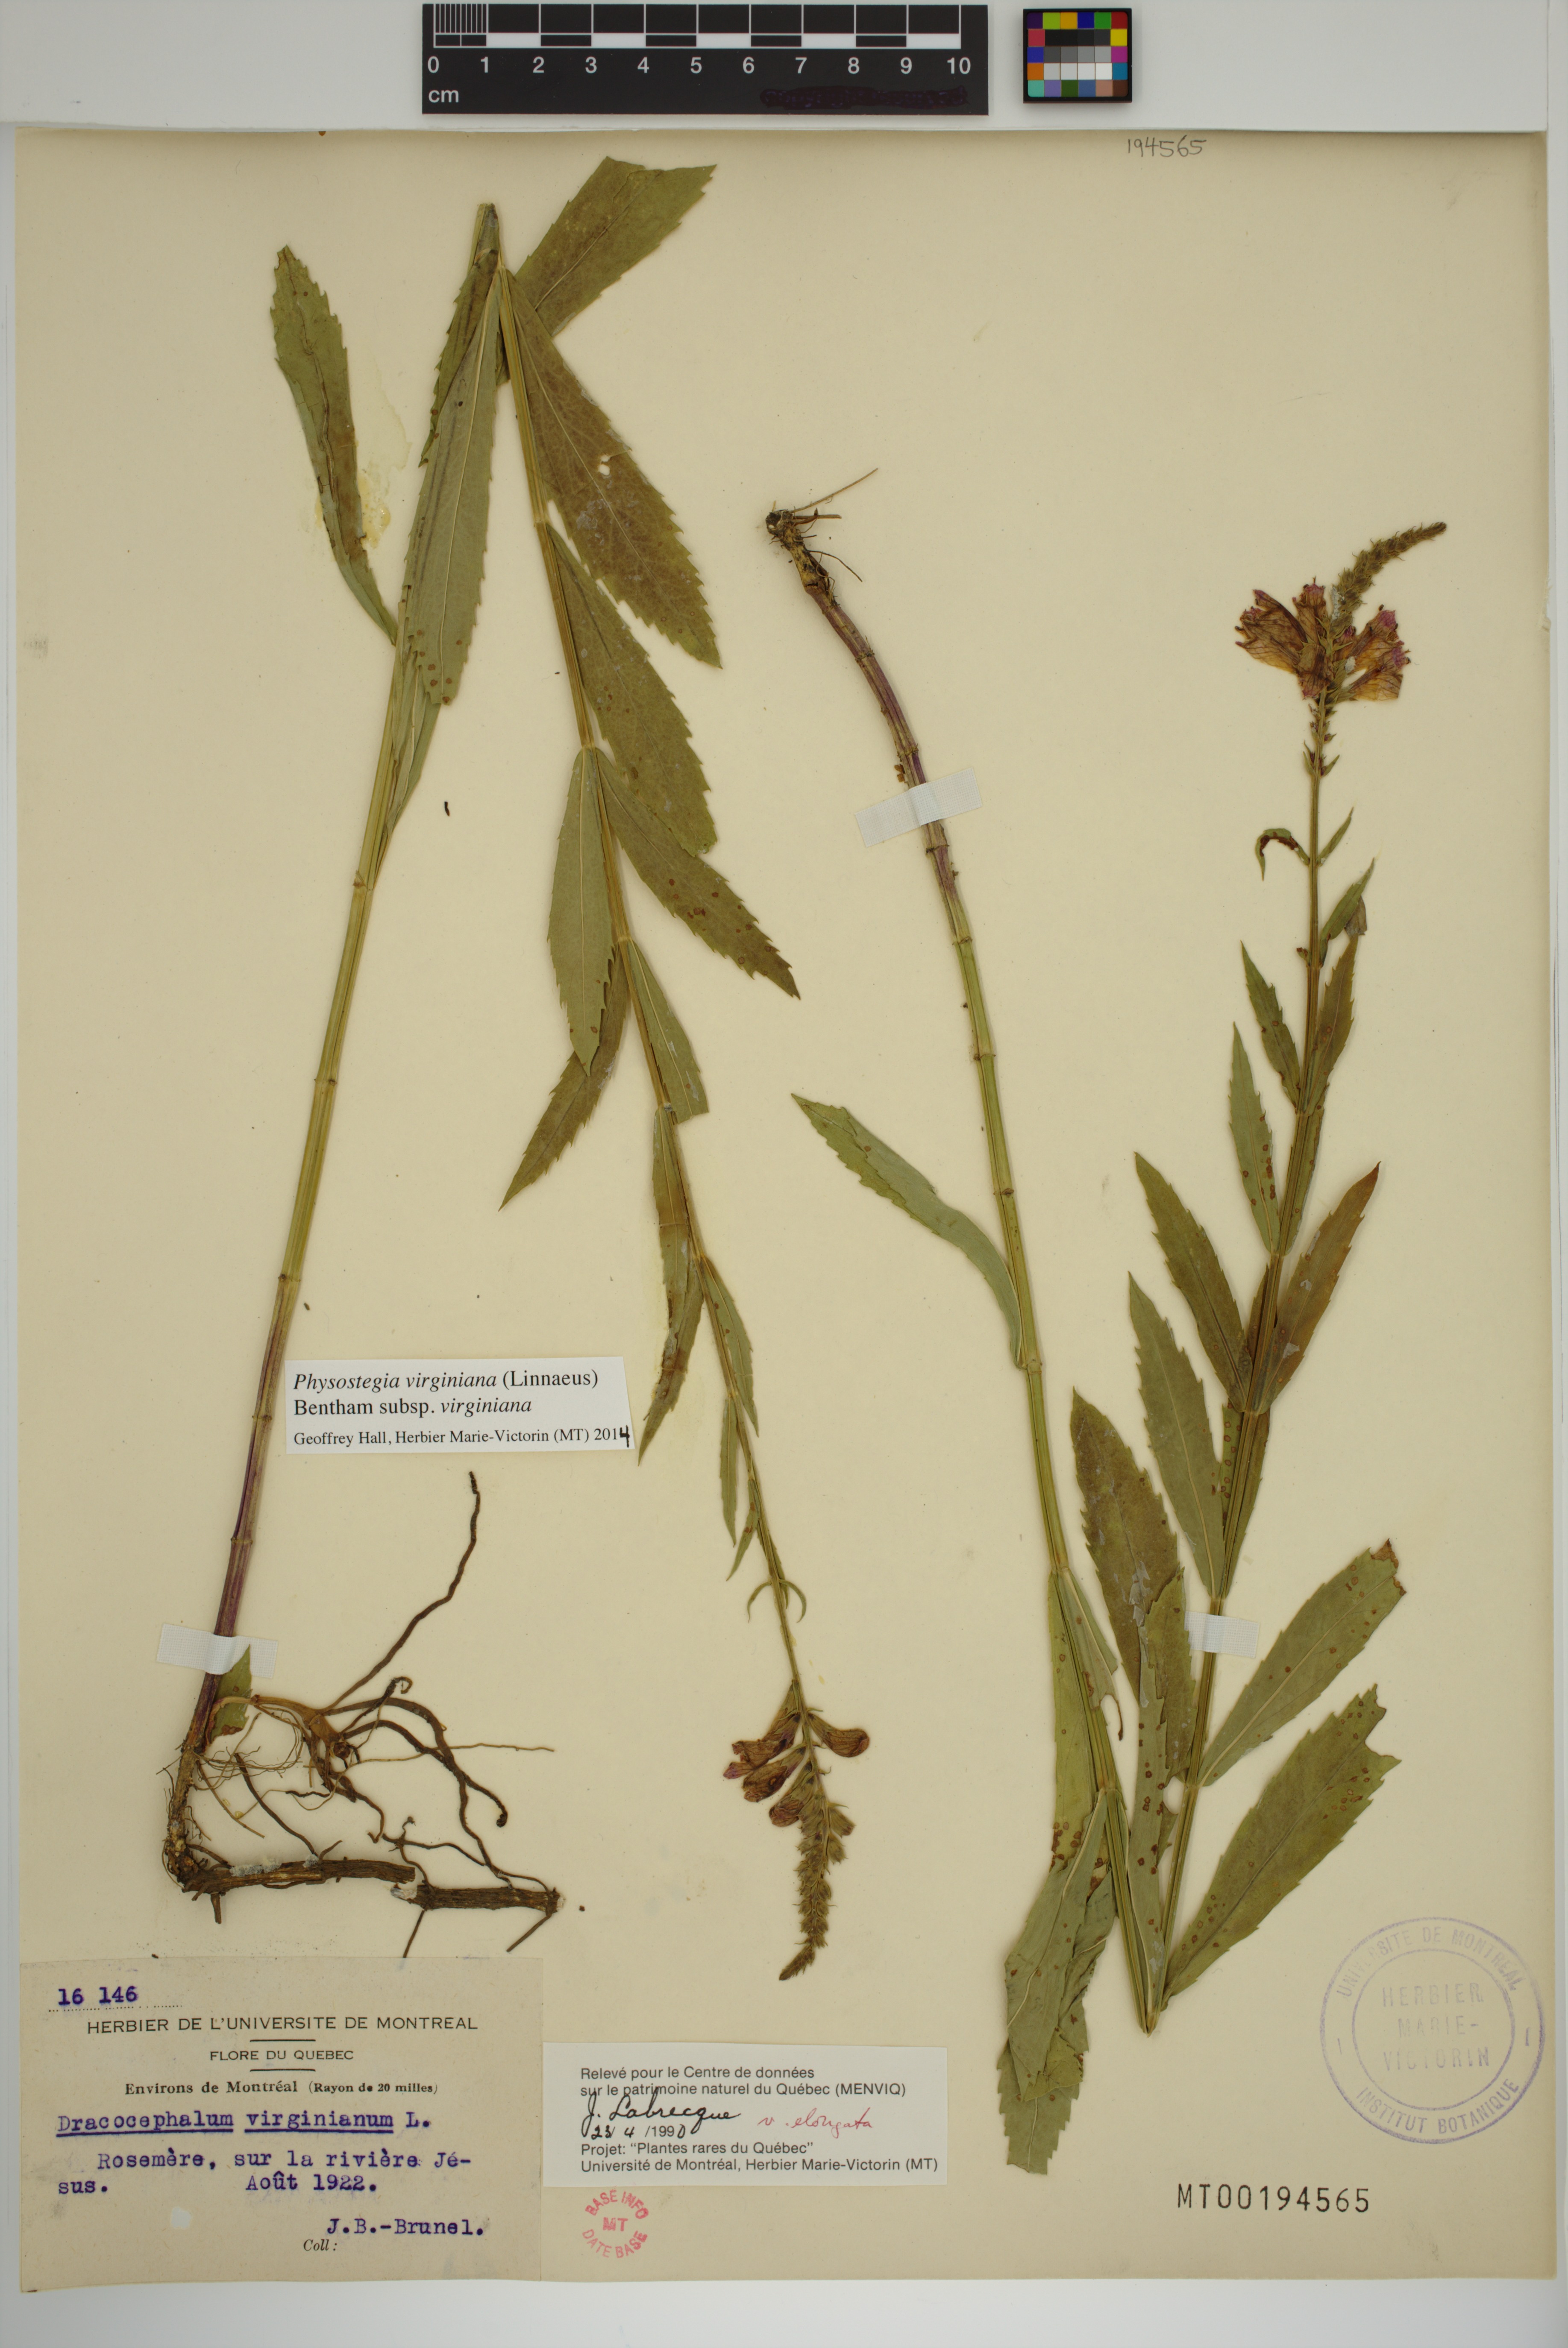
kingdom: Plantae
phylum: Tracheophyta
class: Magnoliopsida
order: Lamiales
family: Lamiaceae
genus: Physostegia
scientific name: Physostegia virginiana
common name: Obedient-plant
